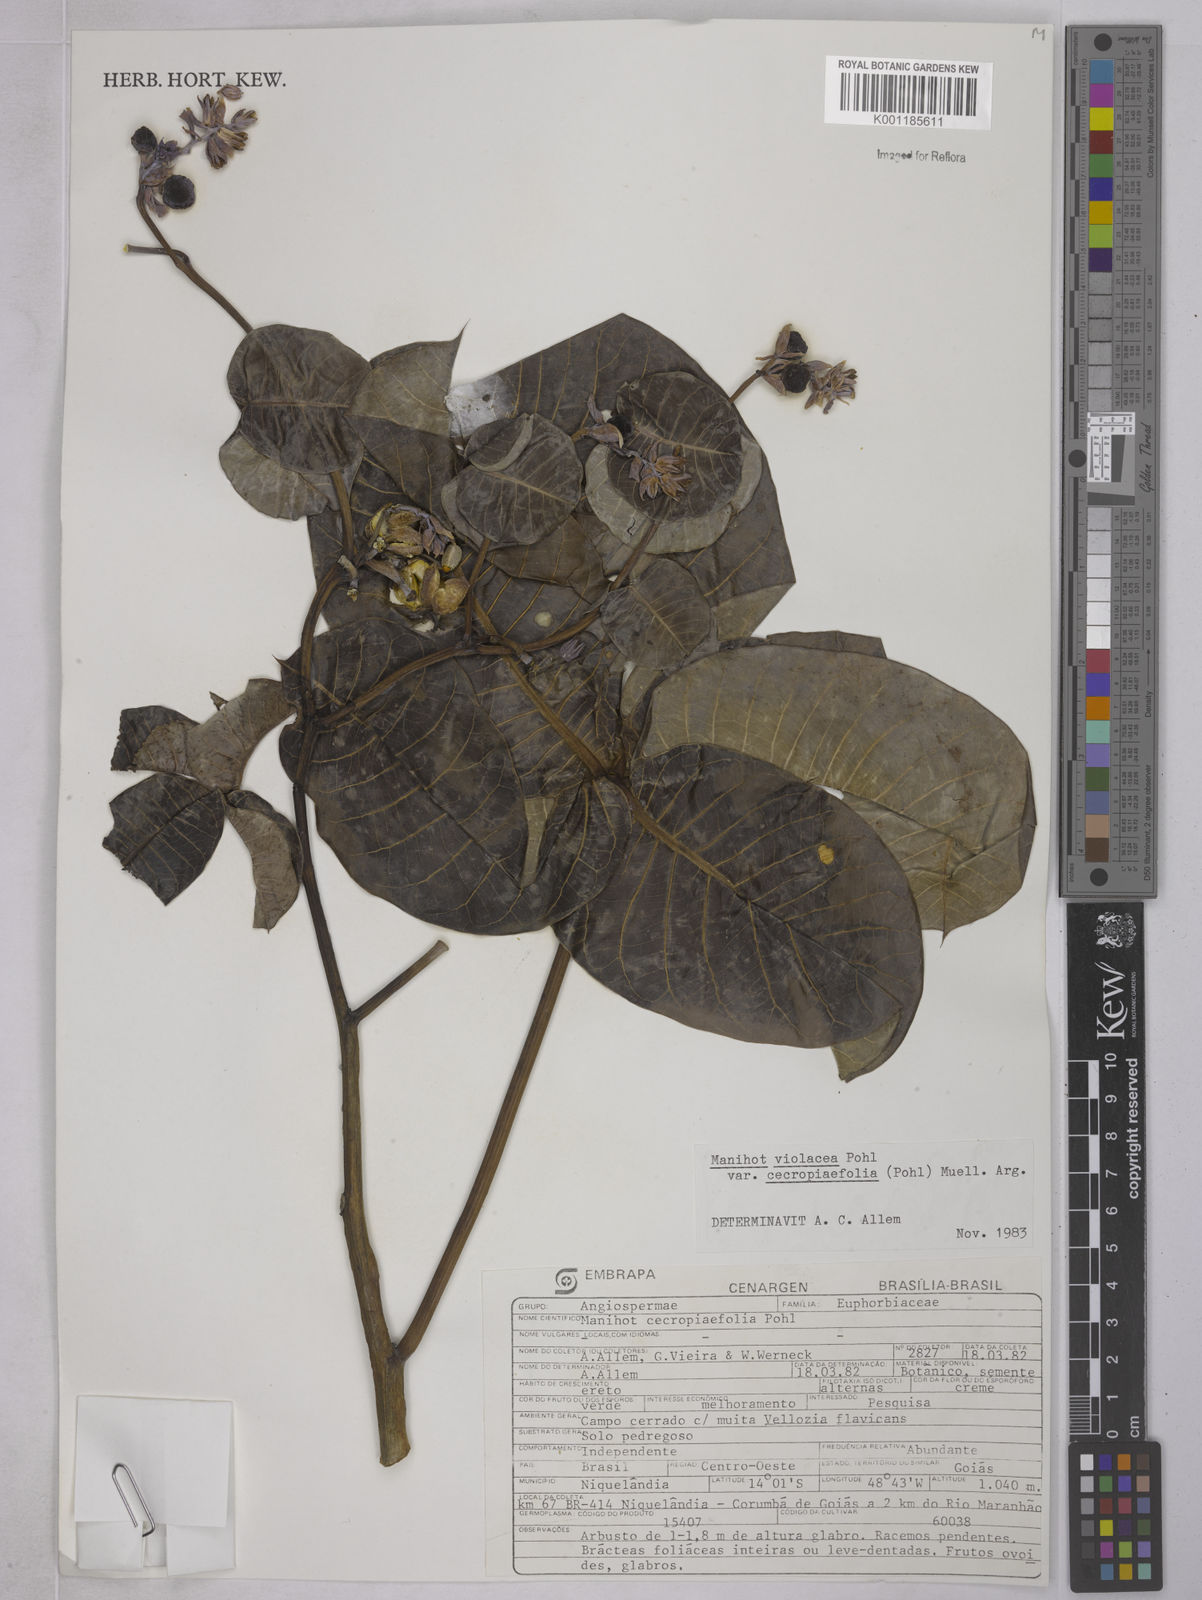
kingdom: Plantae
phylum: Tracheophyta
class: Magnoliopsida
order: Malpighiales
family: Euphorbiaceae
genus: Manihot
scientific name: Manihot cecropiifolia
